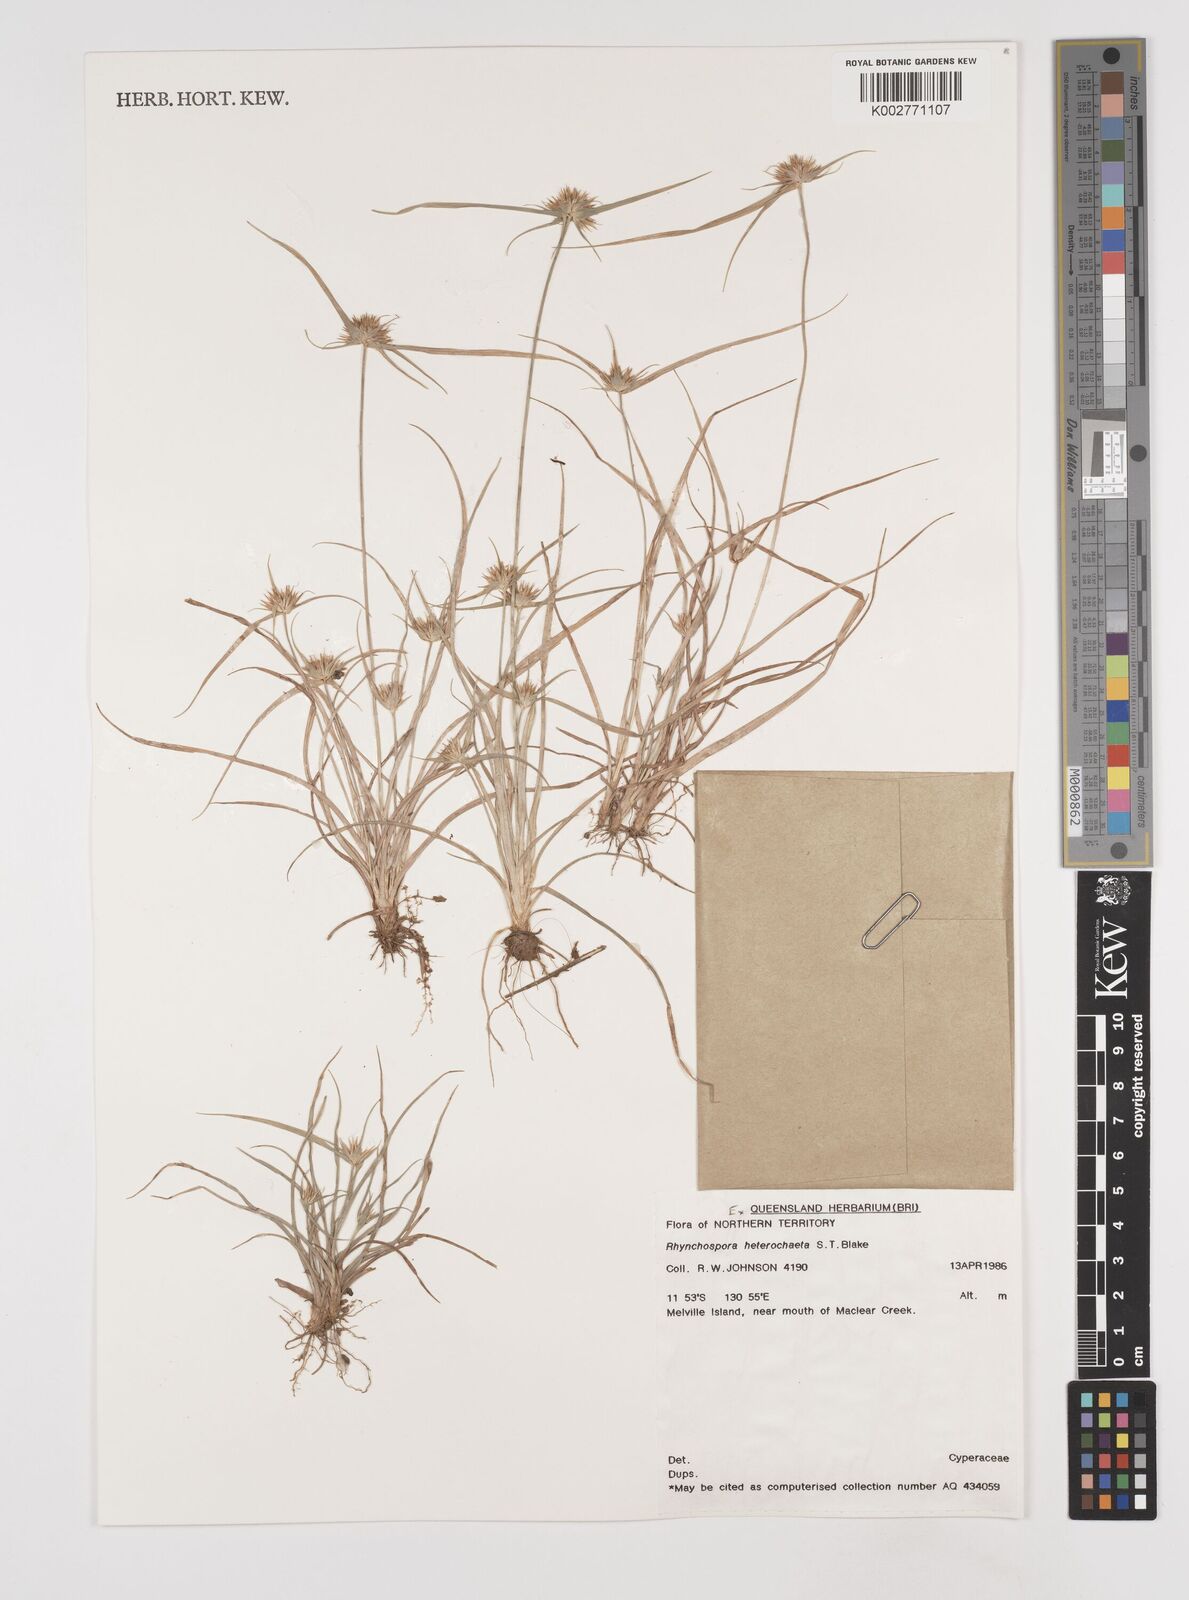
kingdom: Plantae
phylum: Tracheophyta
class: Liliopsida
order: Poales
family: Cyperaceae
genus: Rhynchospora
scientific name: Rhynchospora heterochaeta
